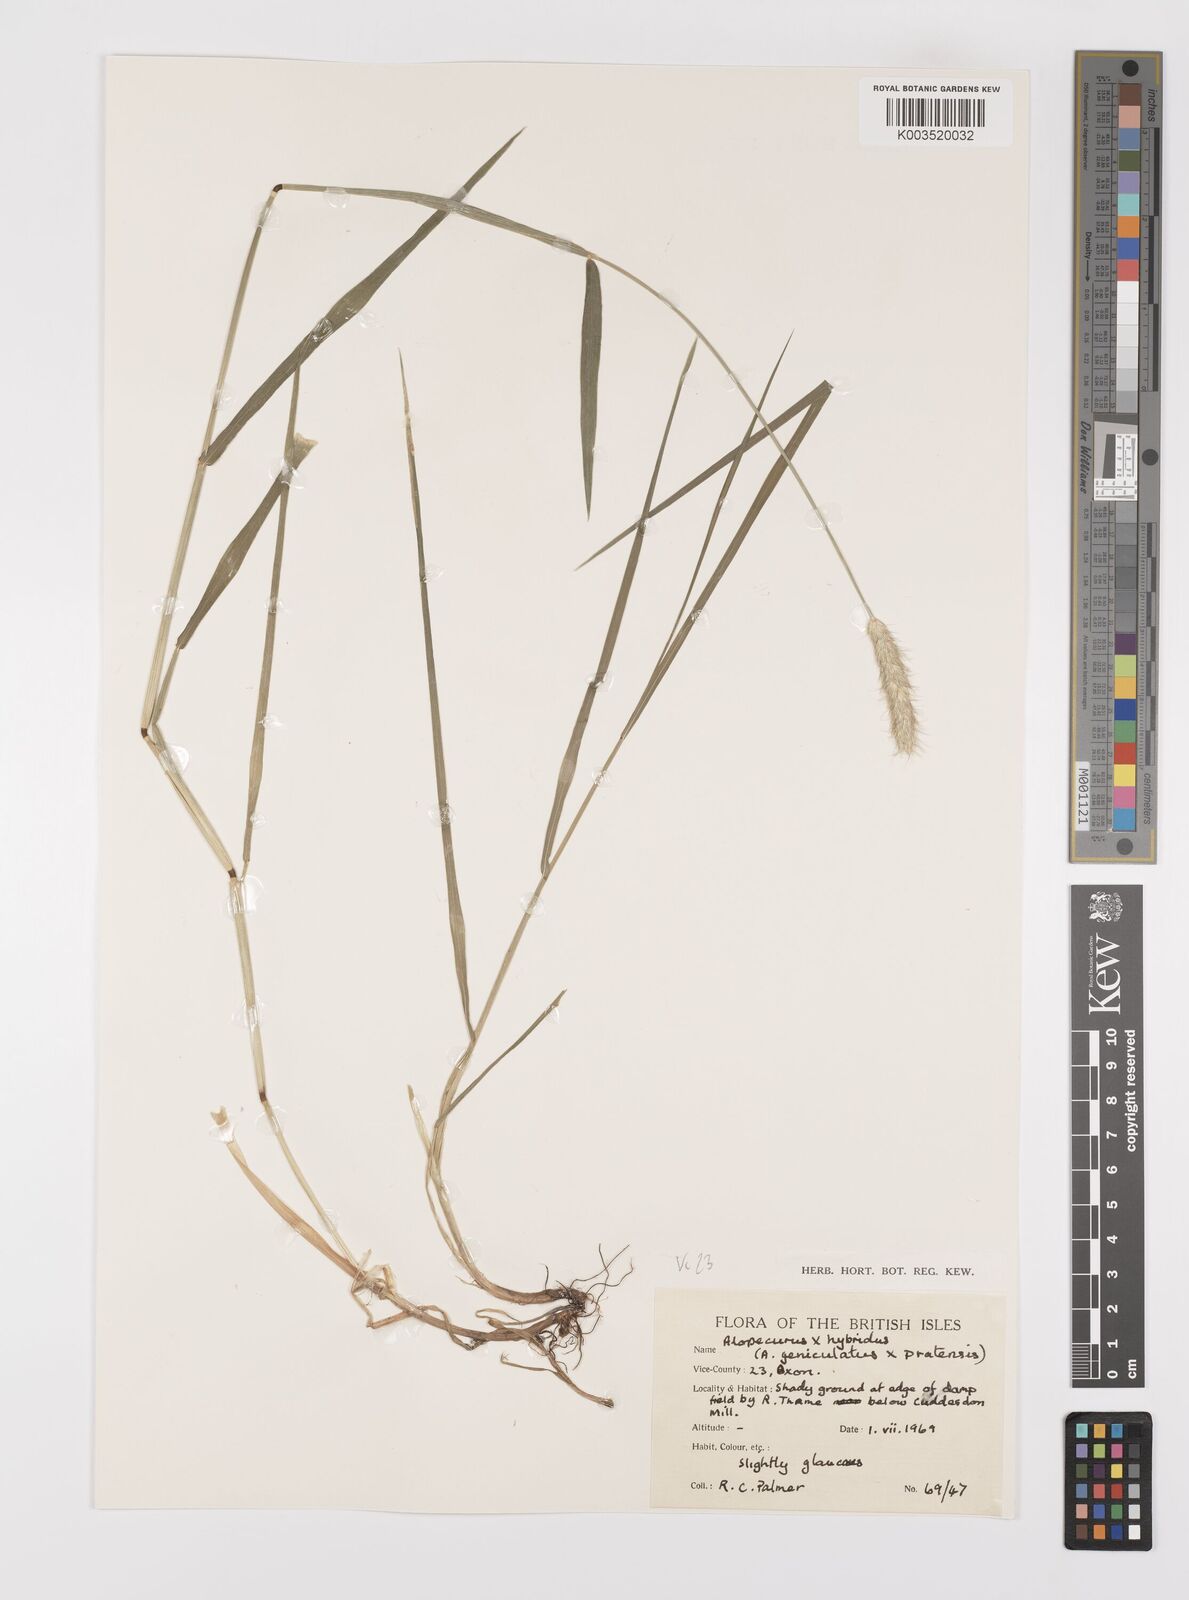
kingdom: Plantae
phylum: Tracheophyta
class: Liliopsida
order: Poales
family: Poaceae
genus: Alopecurus
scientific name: Alopecurus brachystylus
